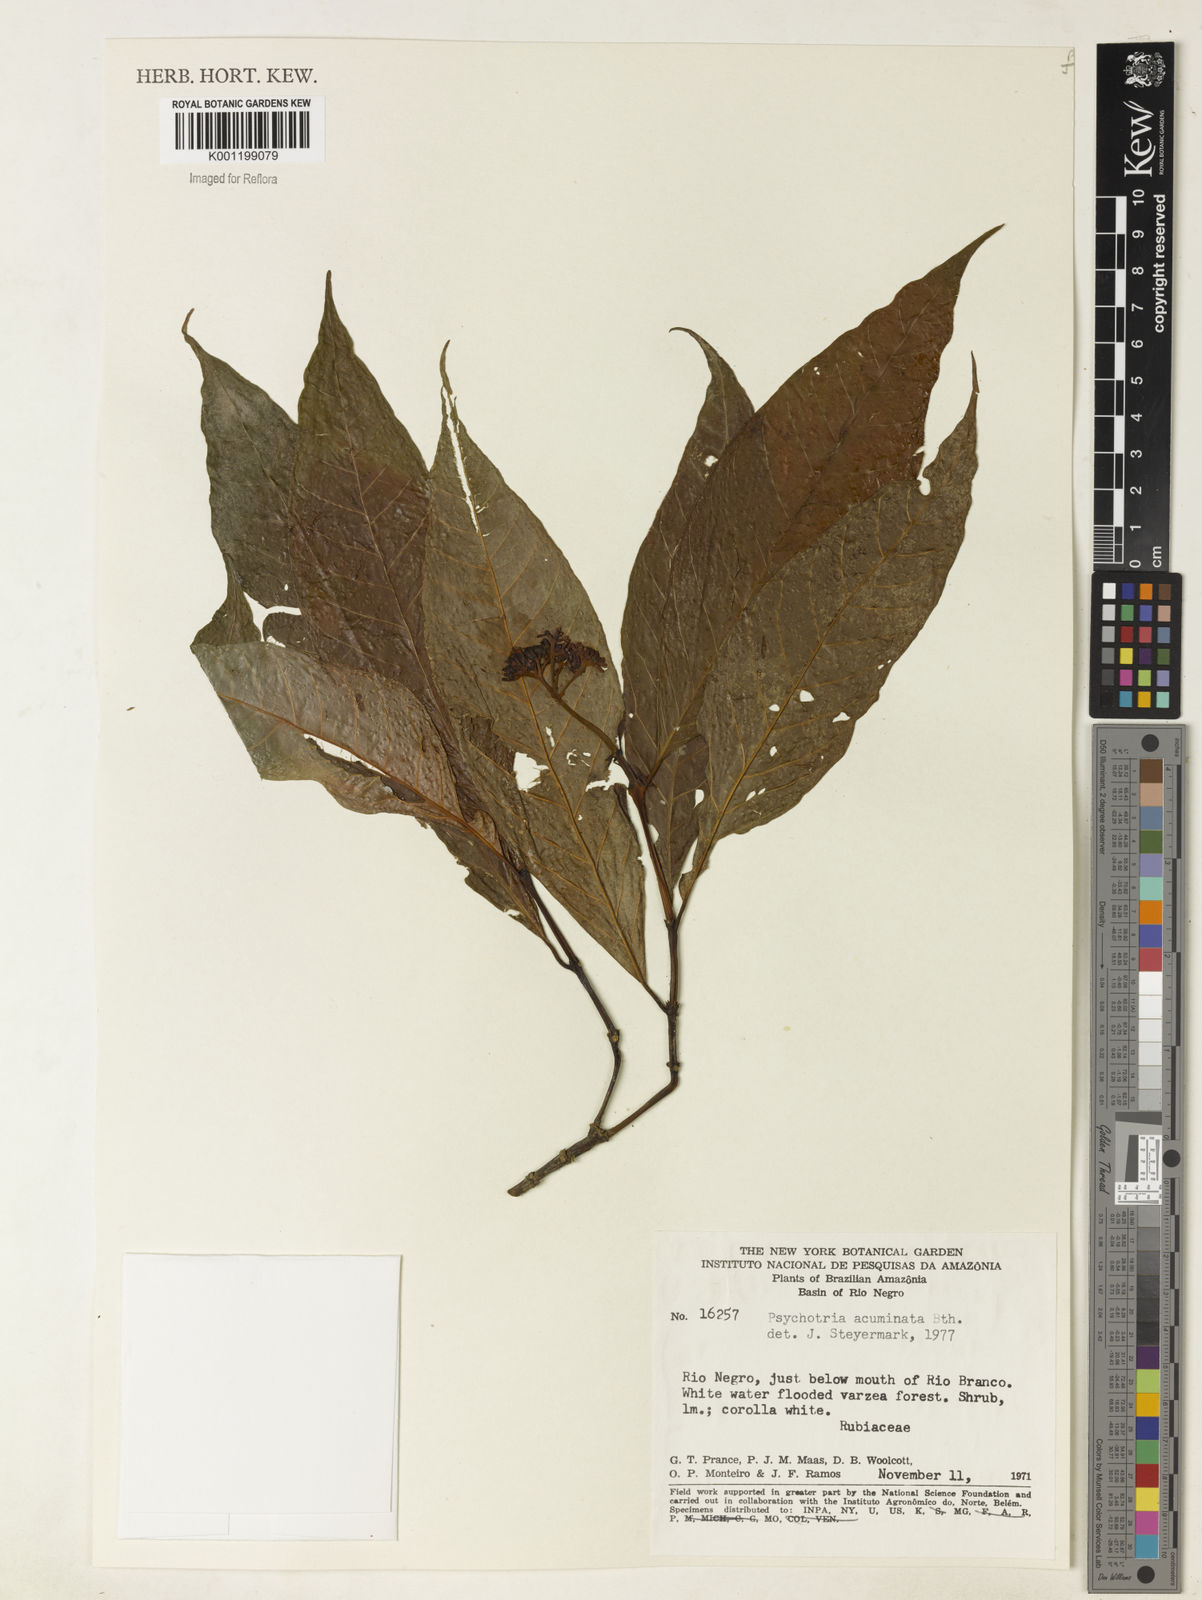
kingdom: Plantae
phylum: Tracheophyta
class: Magnoliopsida
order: Gentianales
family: Rubiaceae
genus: Palicourea
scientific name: Palicourea cuspidata
